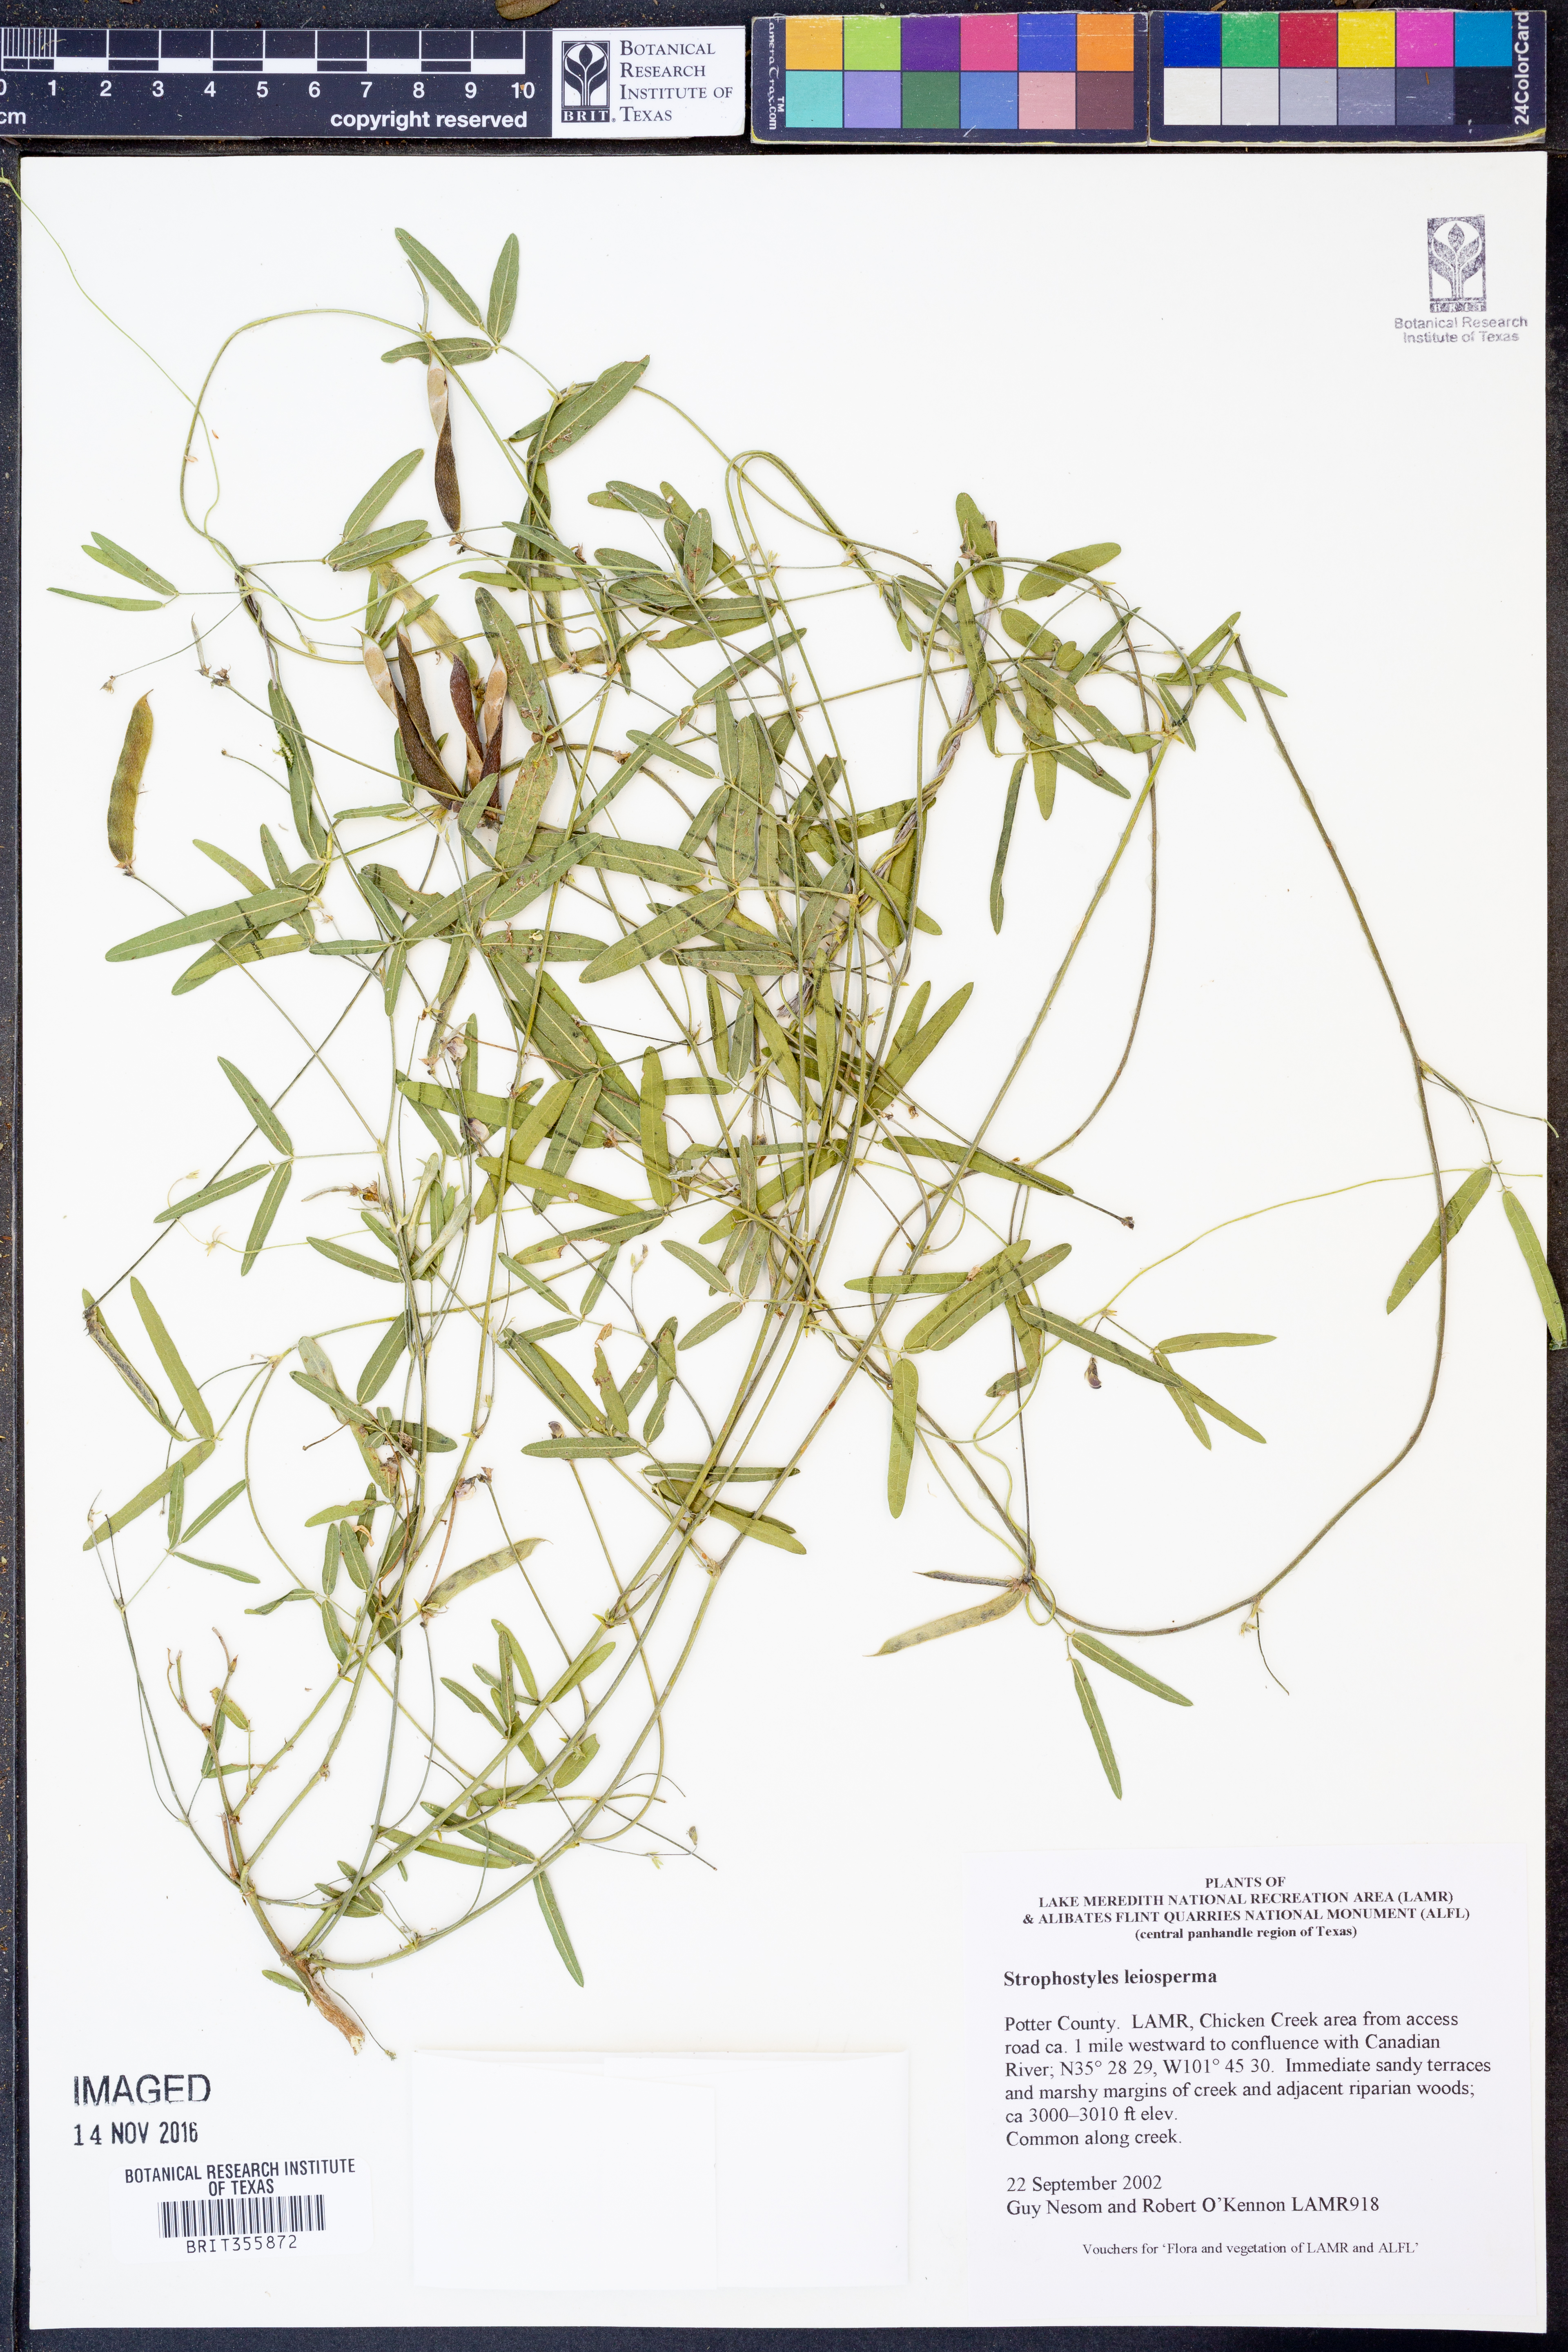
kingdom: Plantae
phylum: Tracheophyta
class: Magnoliopsida
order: Fabales
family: Fabaceae
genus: Strophostyles
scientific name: Strophostyles leiosperma
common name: Smooth-seed wild bean
